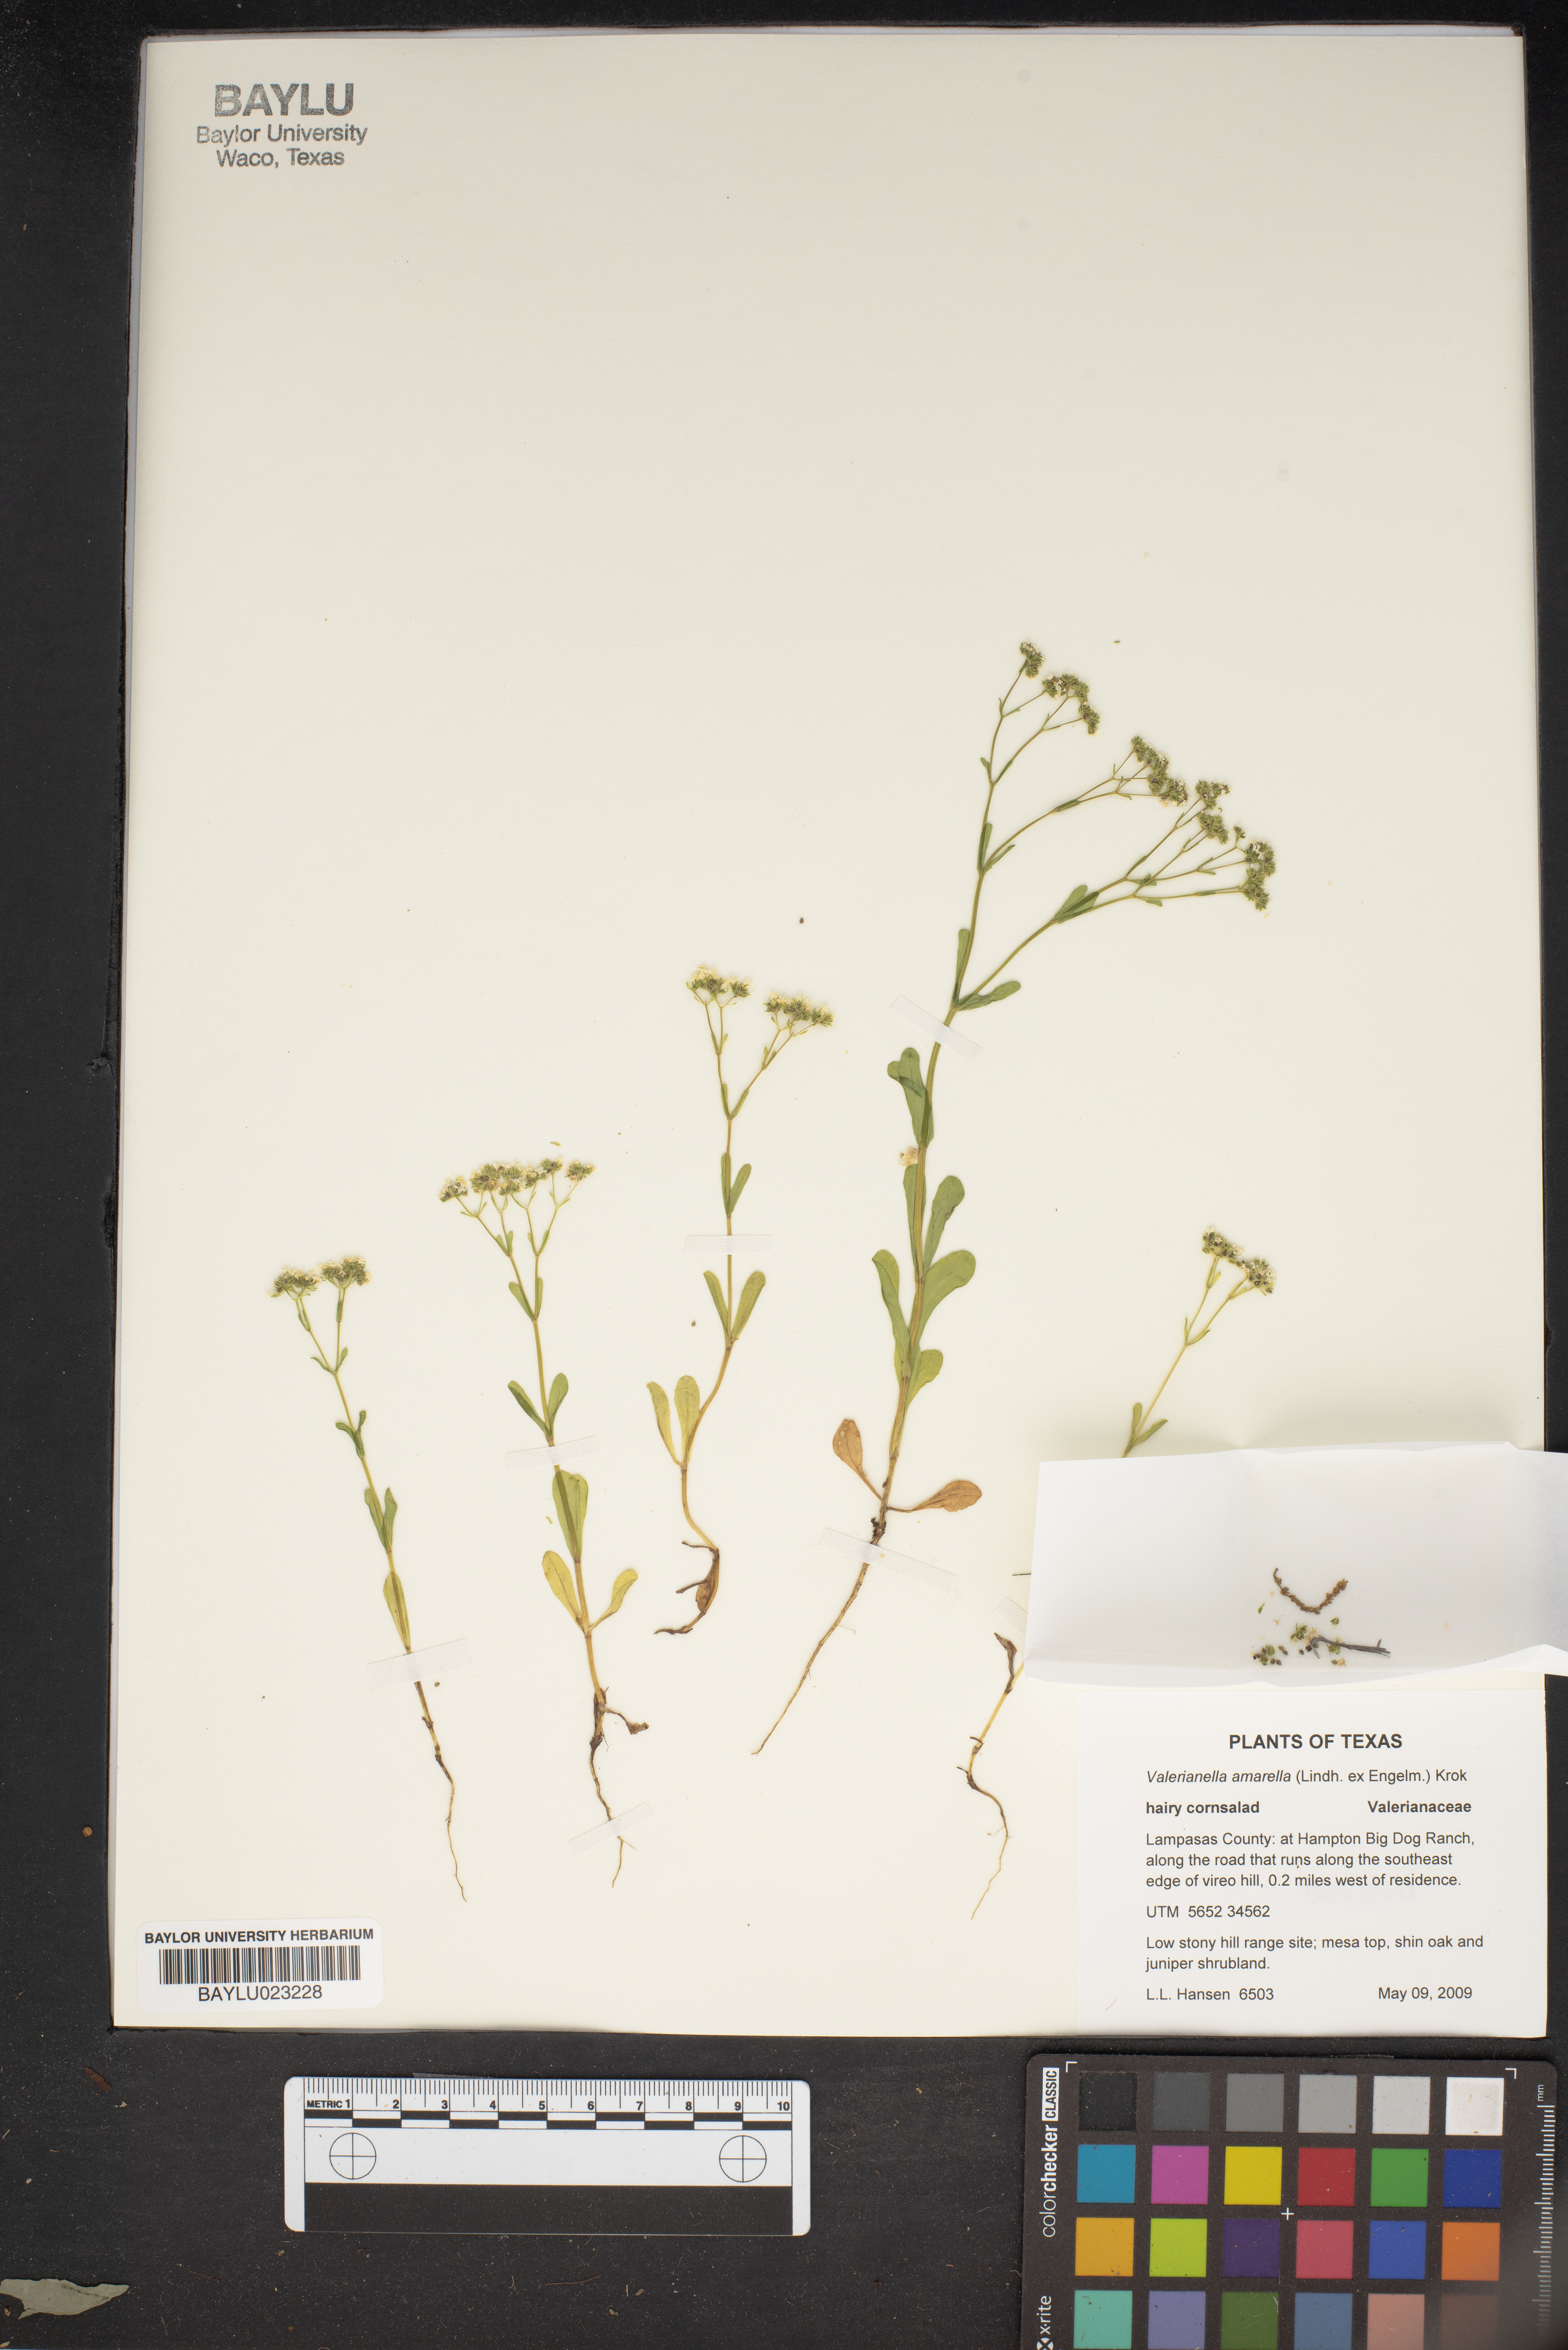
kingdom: Plantae
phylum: Tracheophyta
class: Magnoliopsida
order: Dipsacales
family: Caprifoliaceae
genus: Valerianella
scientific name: Valerianella amarella
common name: Hariy cornsalad
